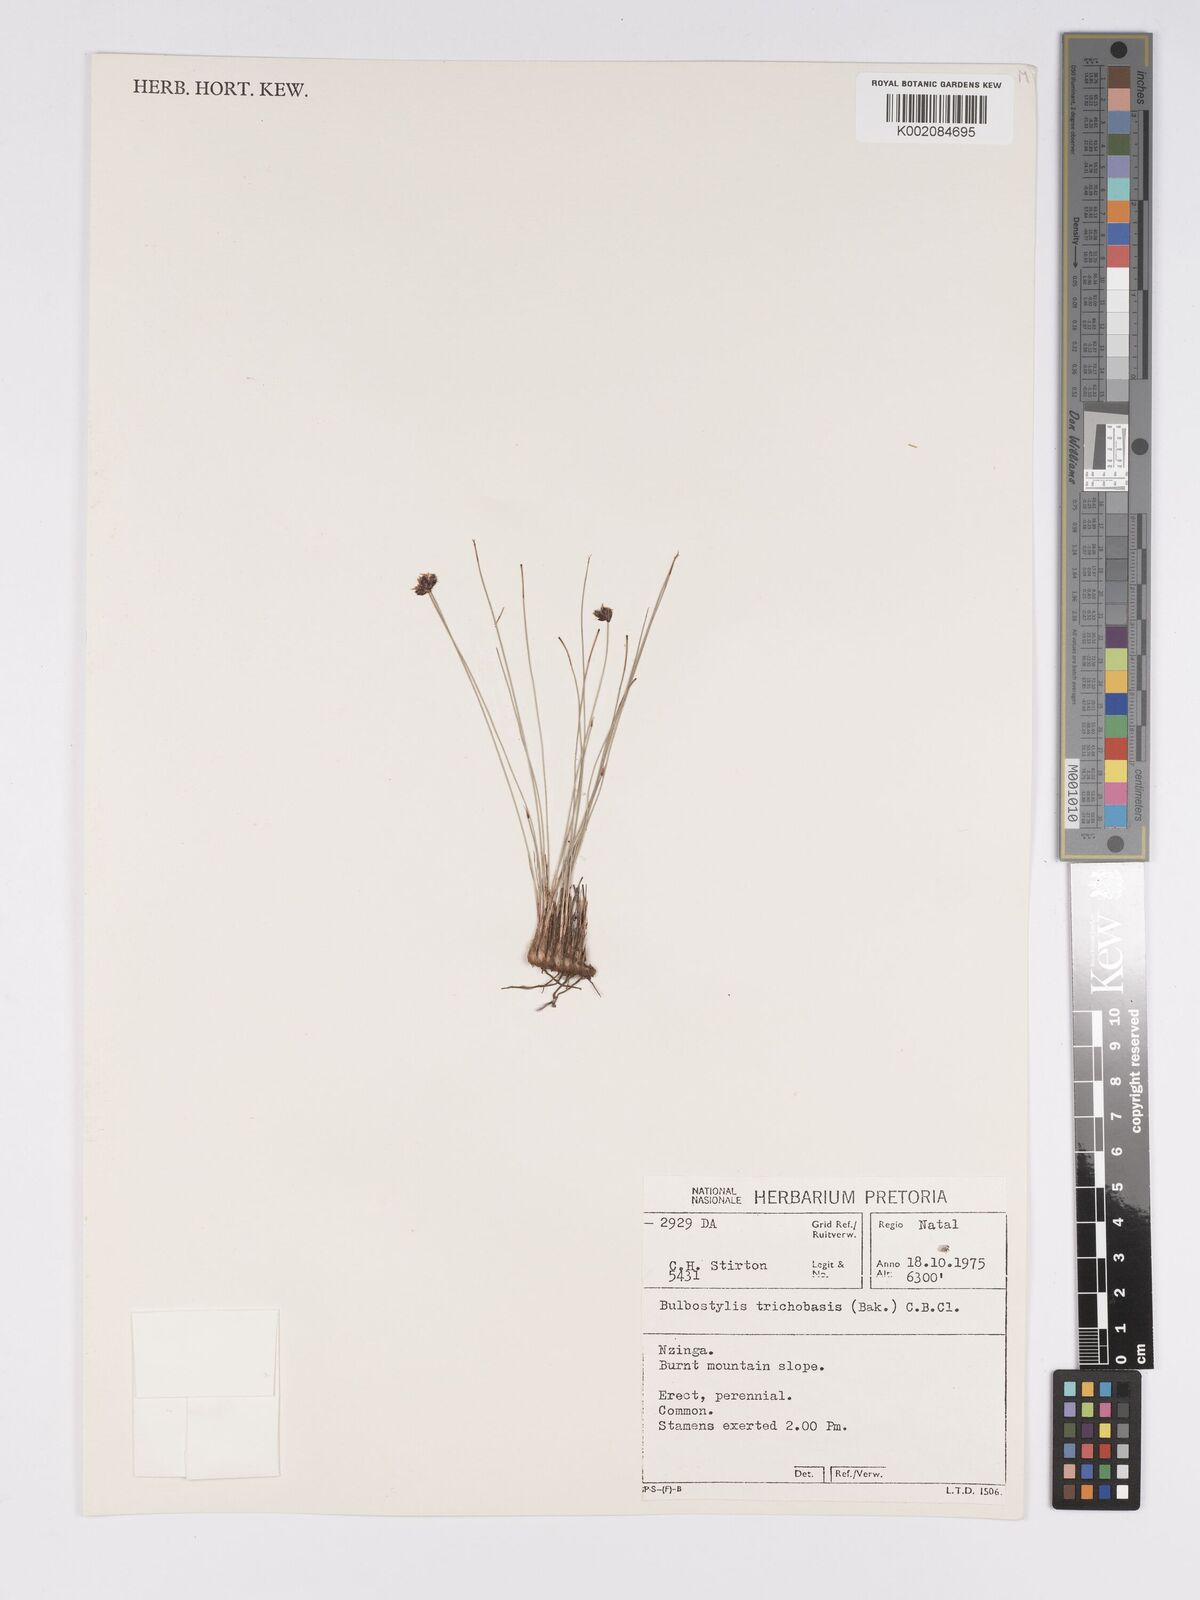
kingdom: Plantae
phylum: Tracheophyta
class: Liliopsida
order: Poales
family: Cyperaceae
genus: Bulbostylis
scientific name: Bulbostylis trichobasis
